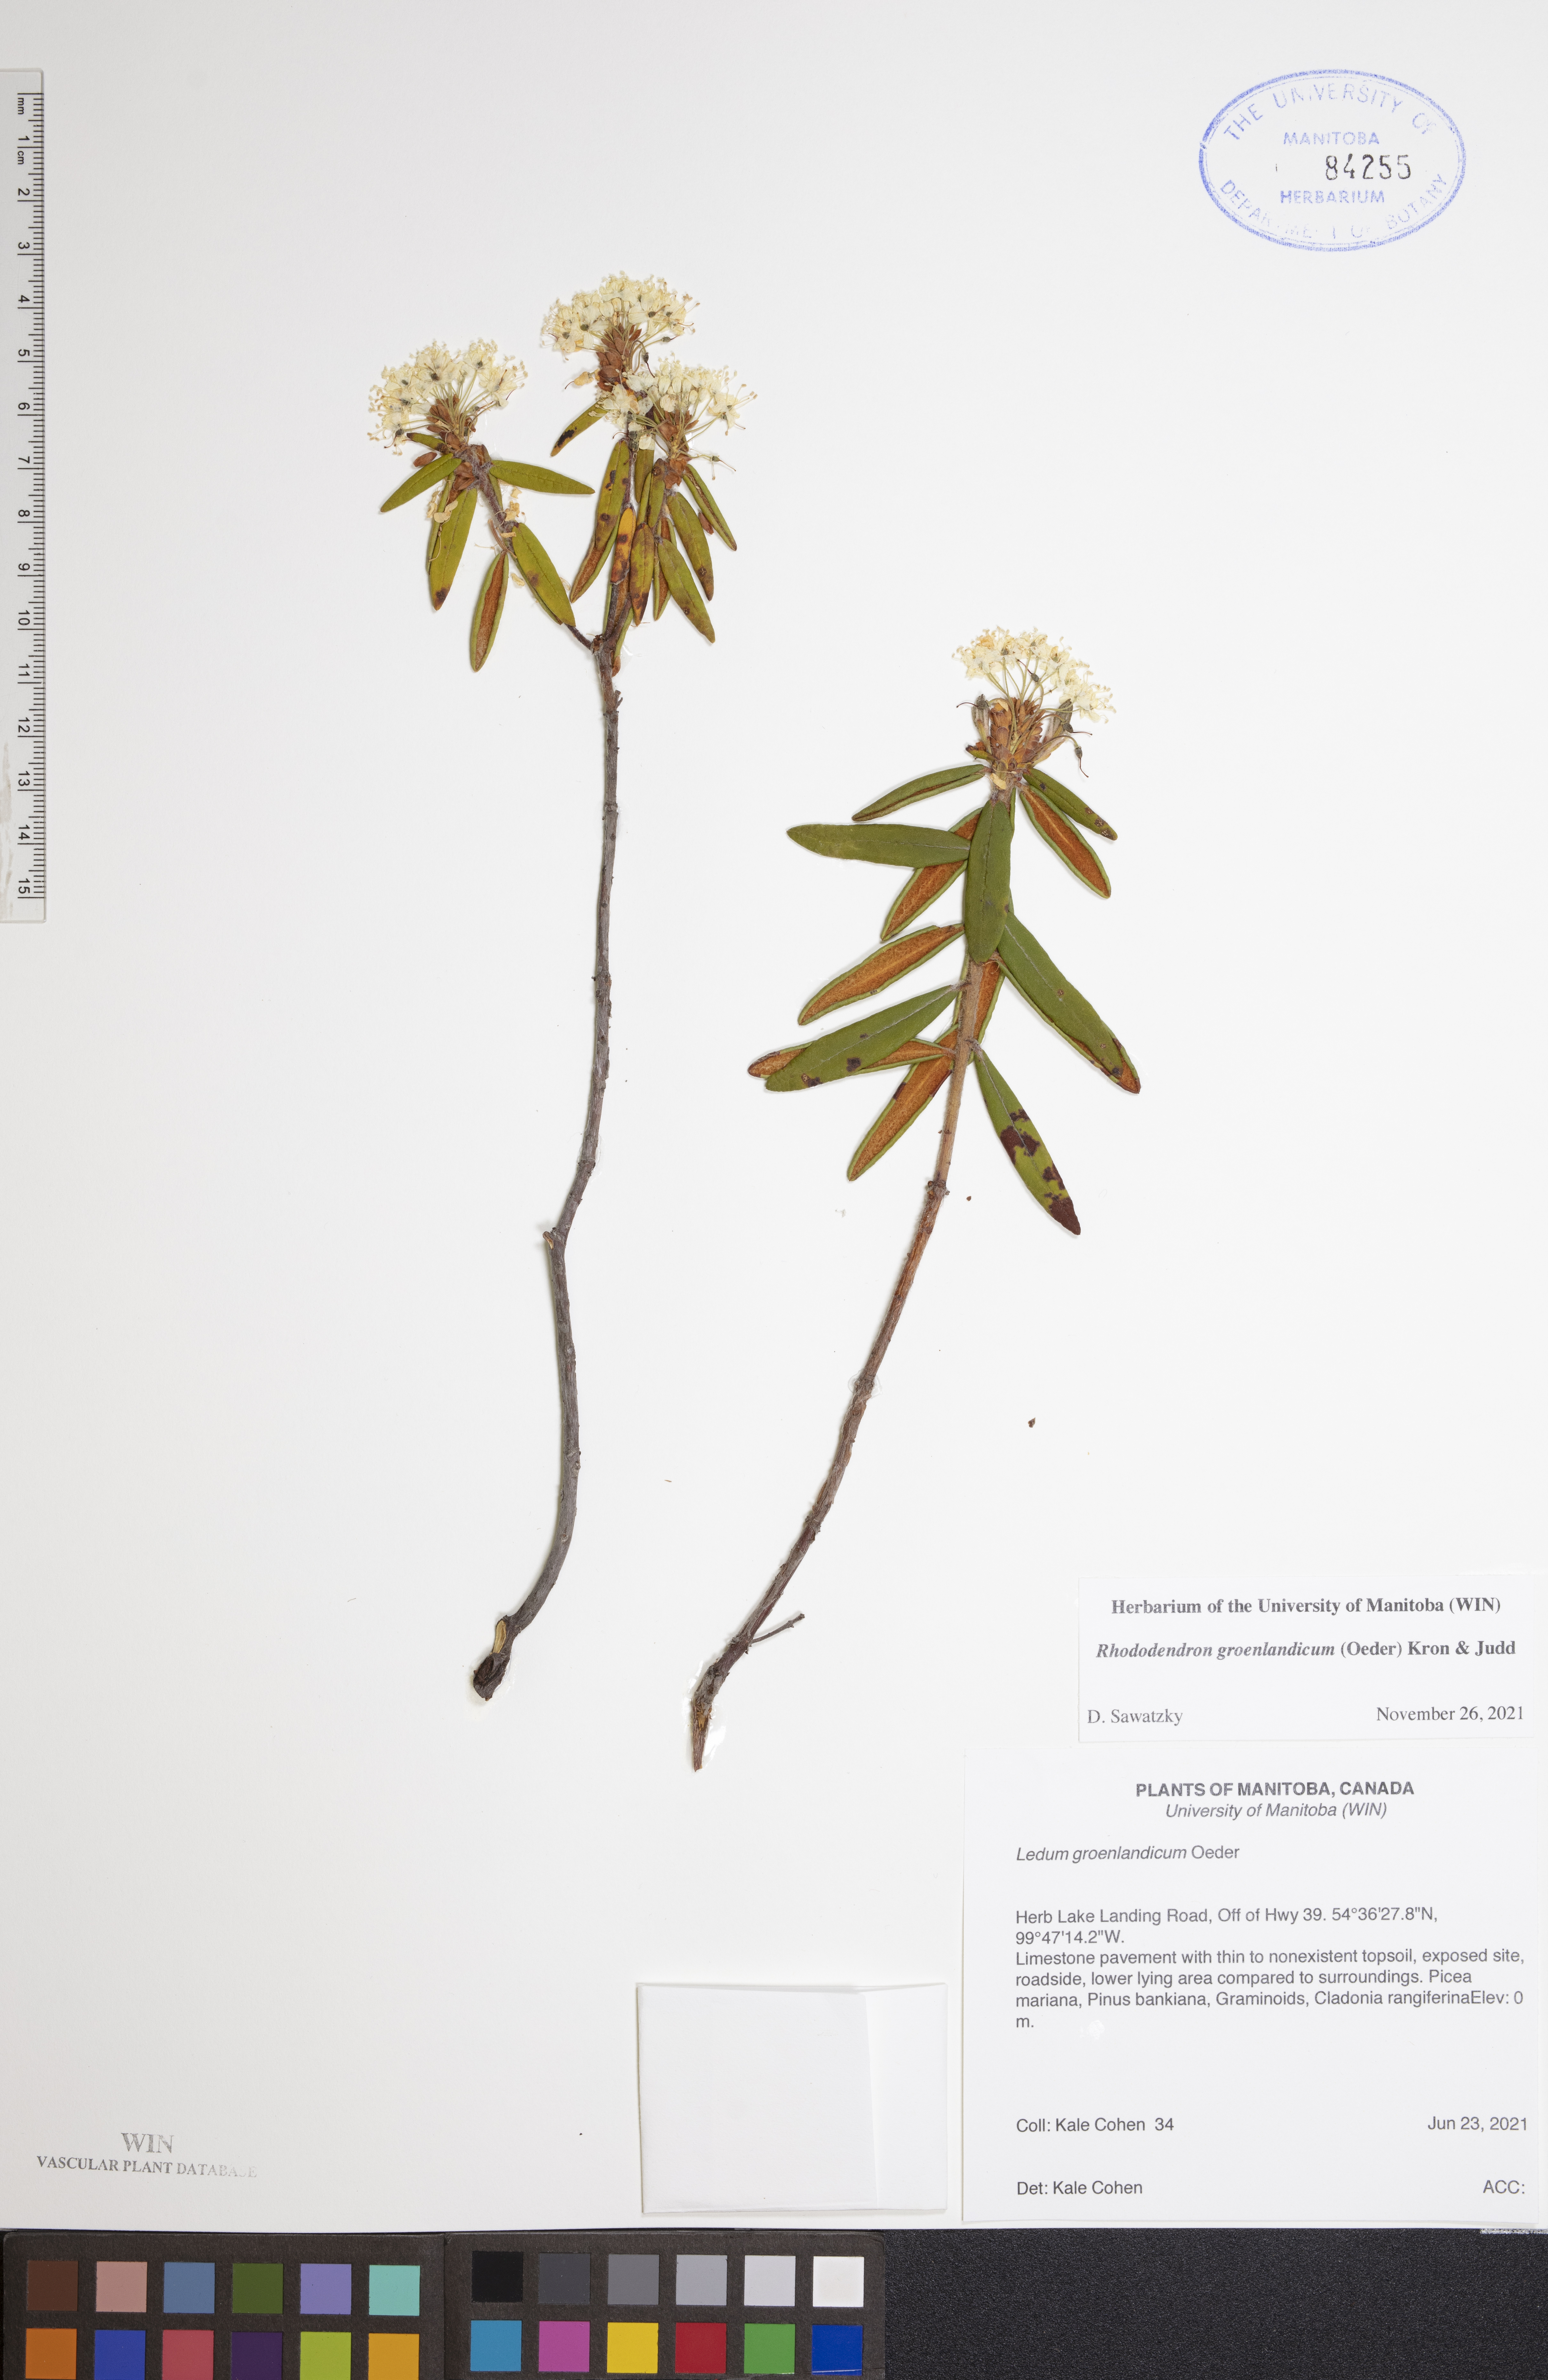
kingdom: Plantae
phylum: Tracheophyta
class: Magnoliopsida
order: Ericales
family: Ericaceae
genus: Rhododendron
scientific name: Rhododendron groenlandicum
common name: Bog labrador tea
